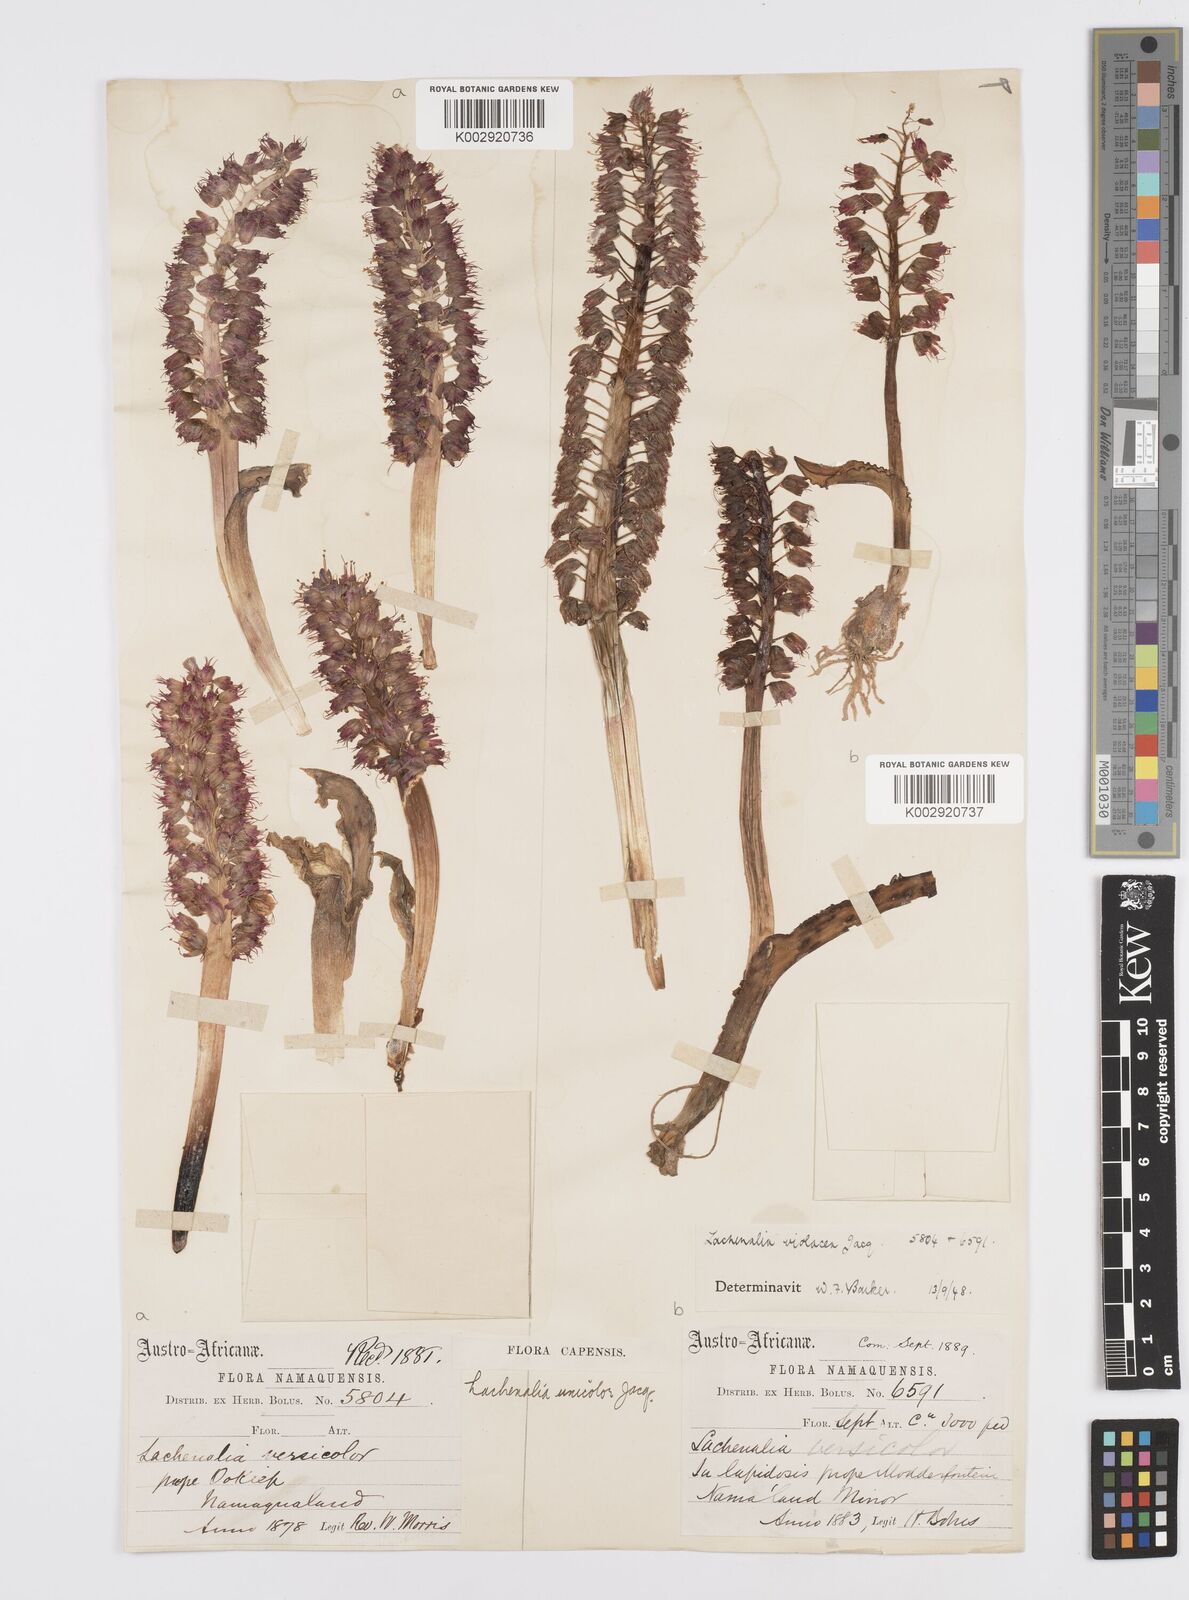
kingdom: Plantae
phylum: Tracheophyta
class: Liliopsida
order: Asparagales
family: Asparagaceae
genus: Lachenalia
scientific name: Lachenalia violacea
